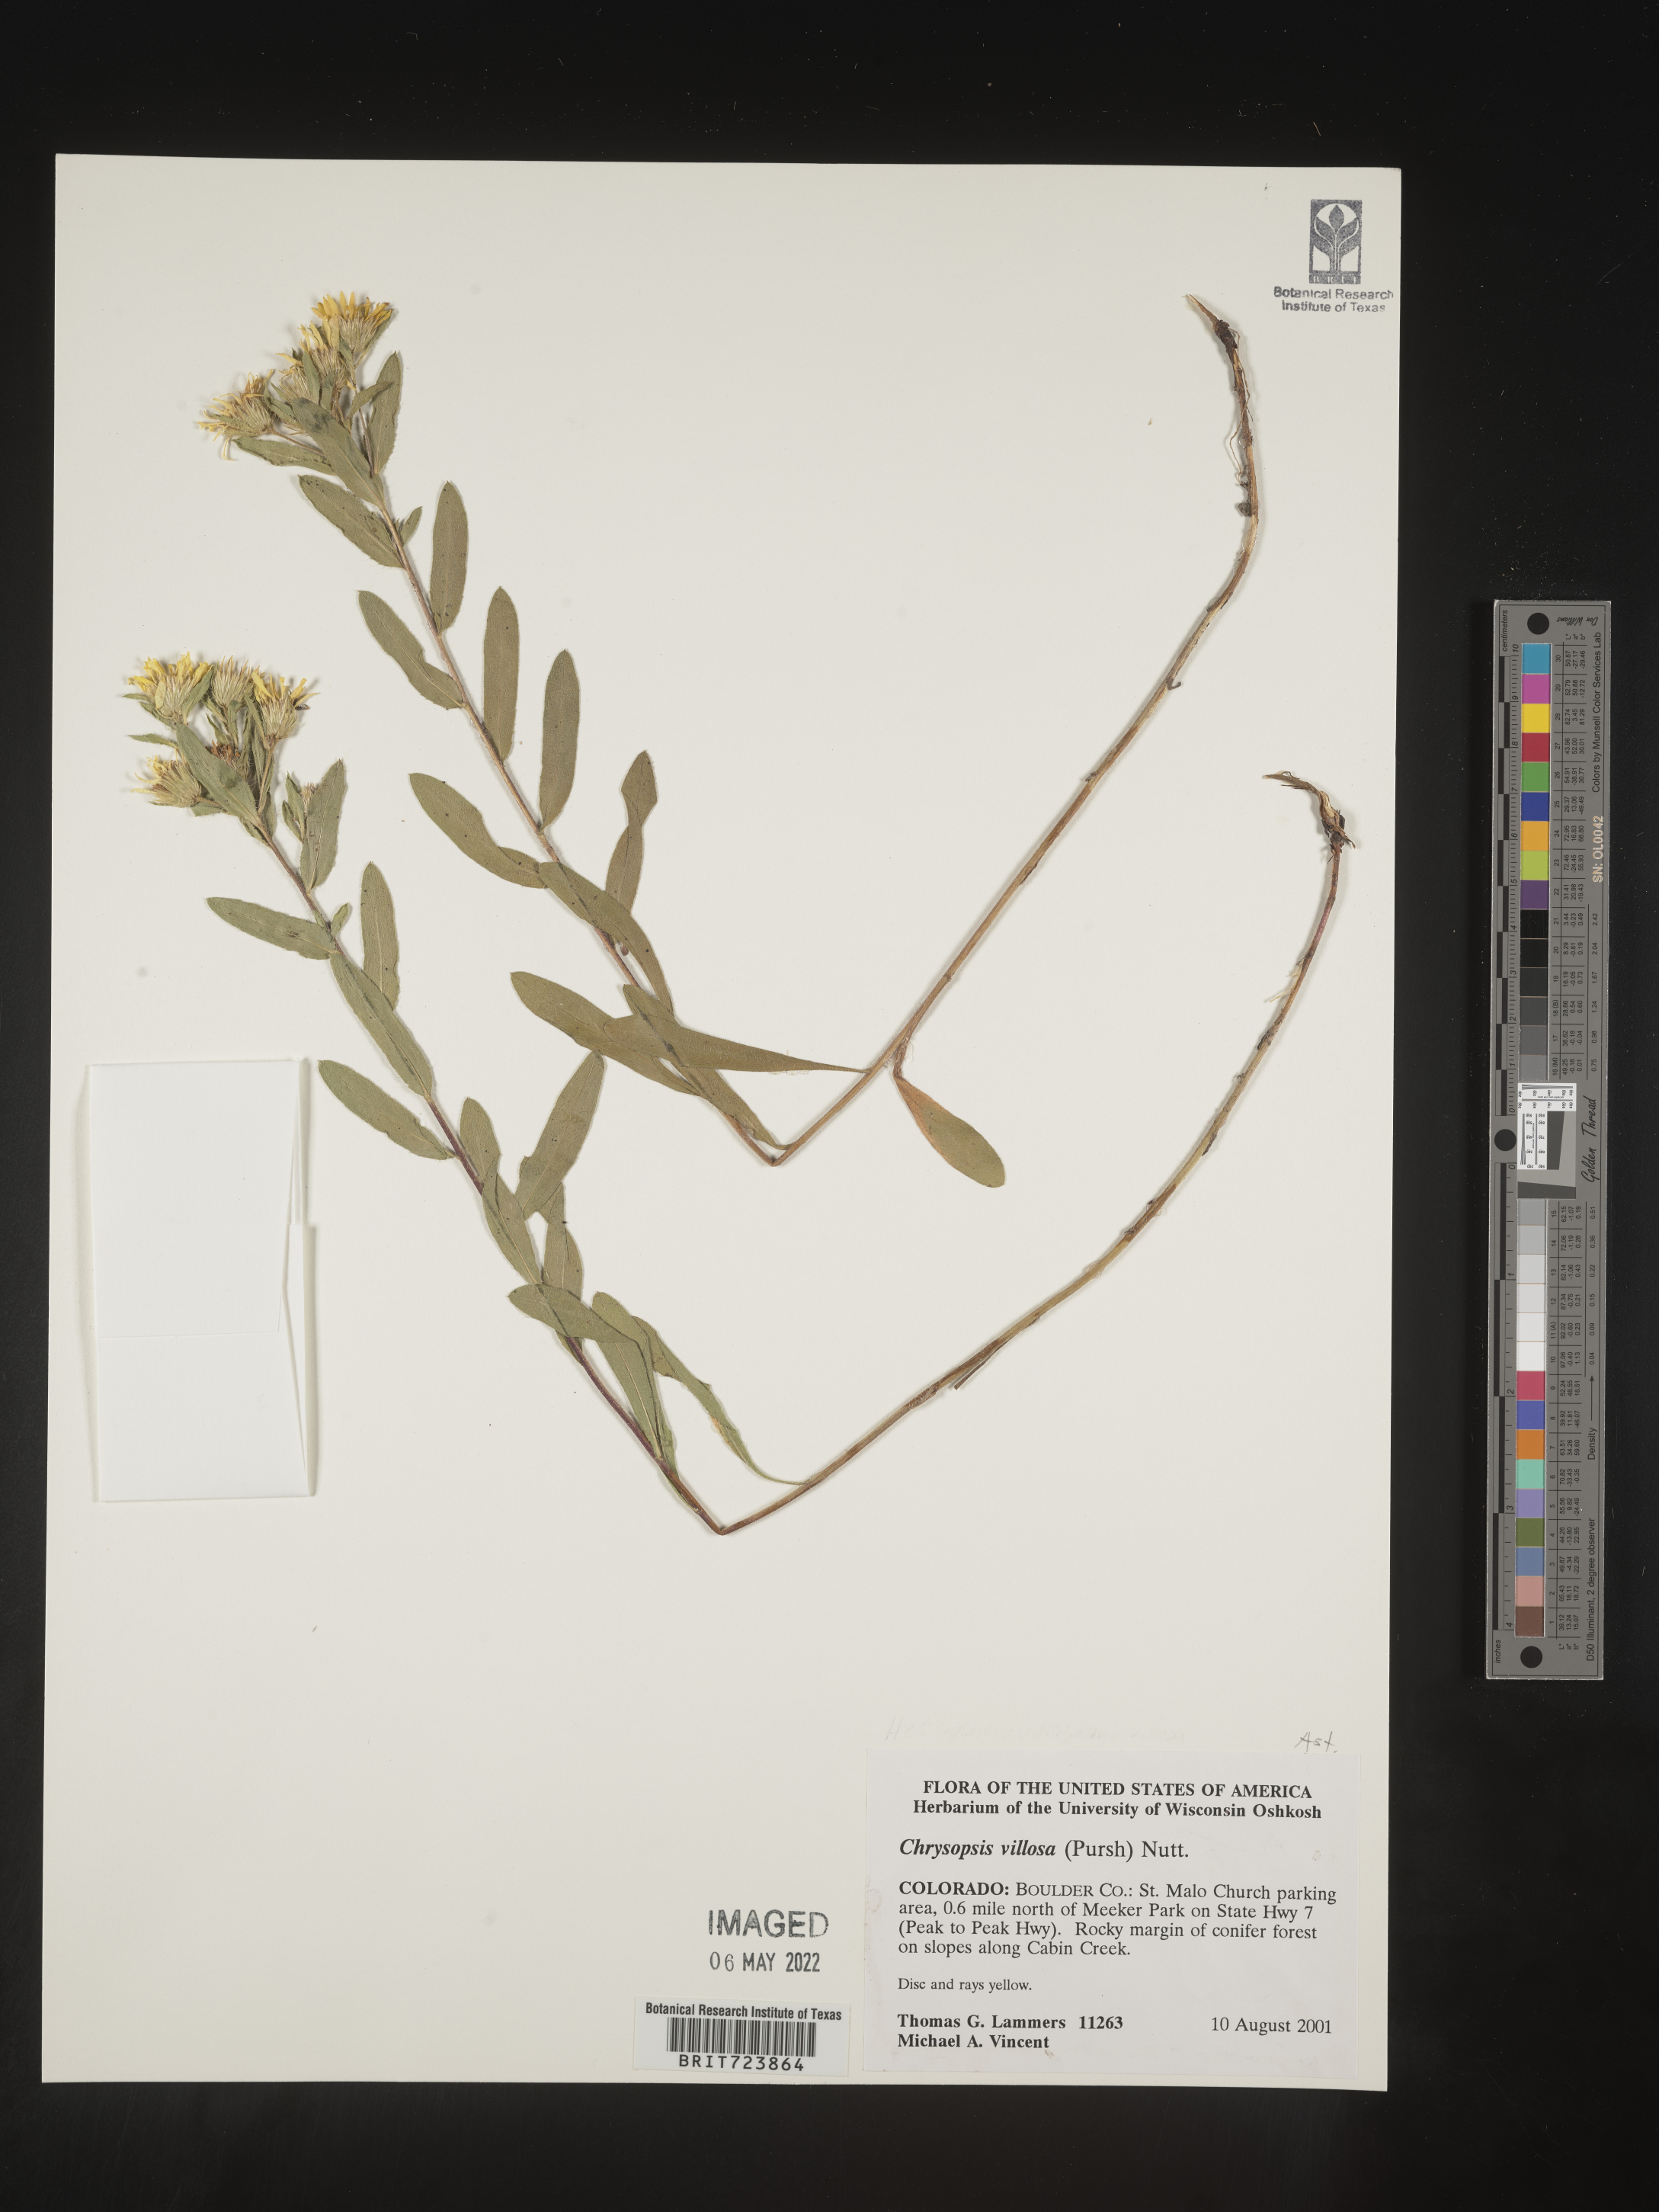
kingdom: Plantae
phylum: Tracheophyta
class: Magnoliopsida
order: Asterales
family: Asteraceae
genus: Heterotheca
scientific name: Heterotheca resinolens
